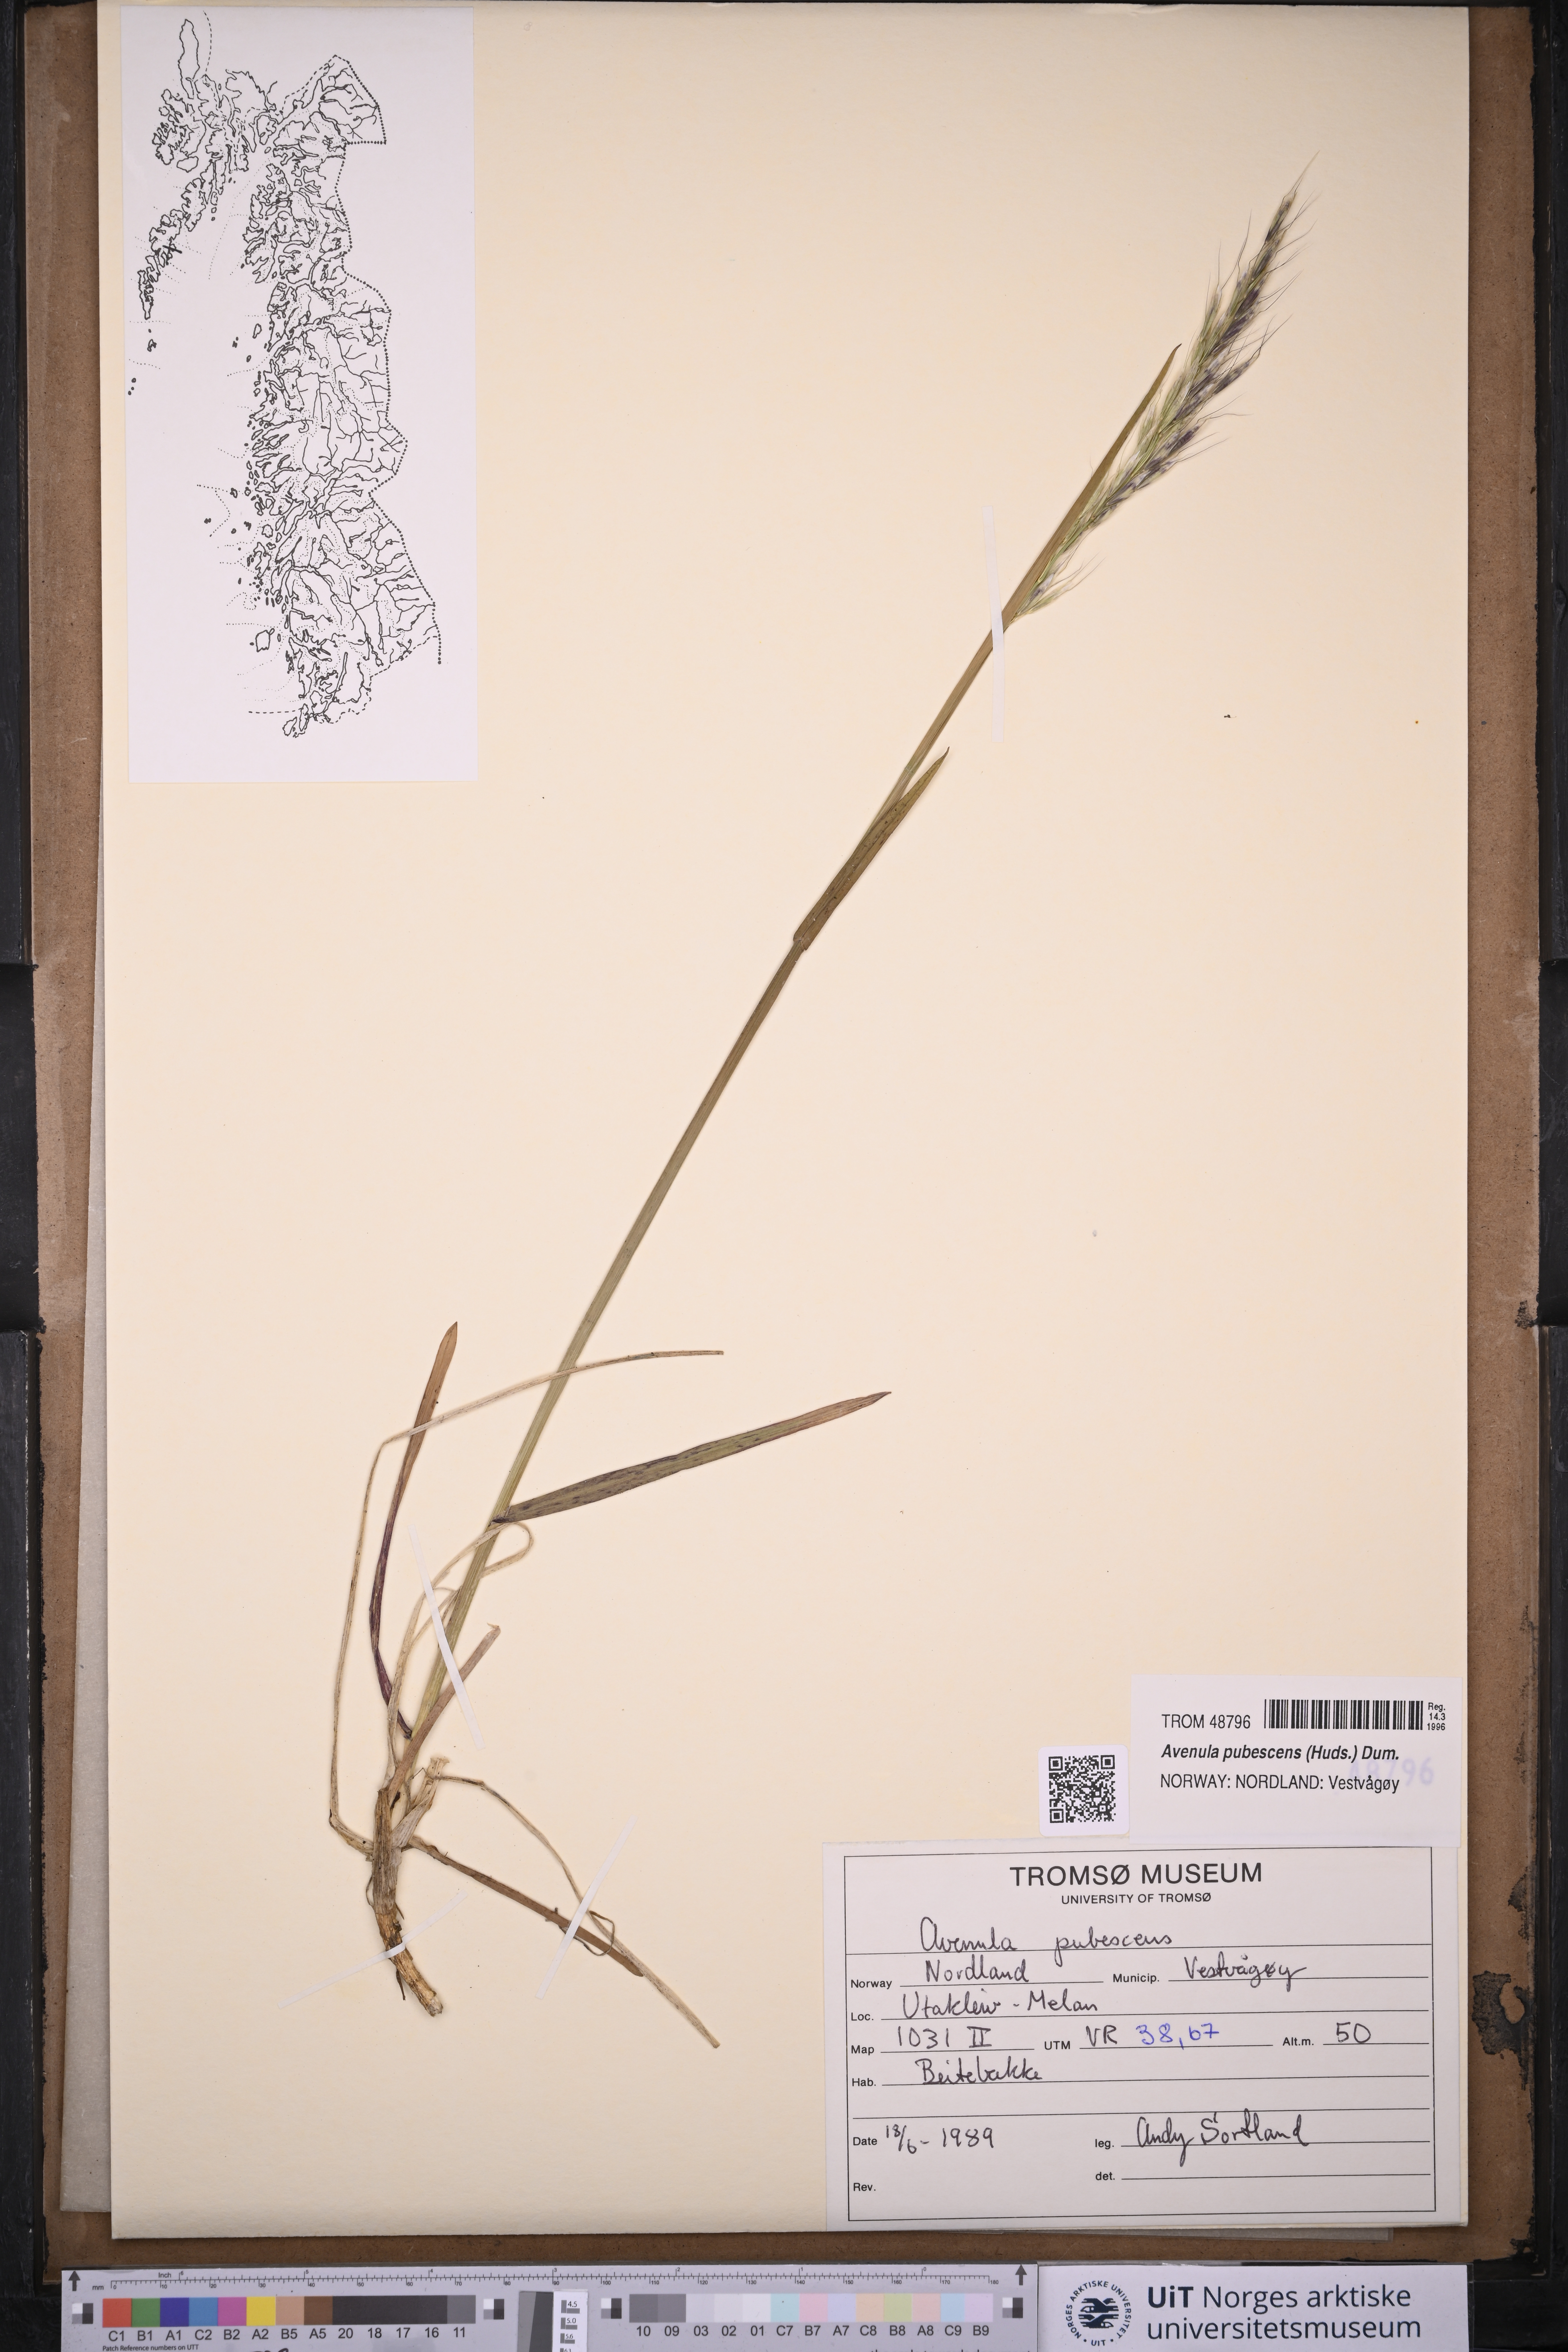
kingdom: Plantae
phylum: Tracheophyta
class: Liliopsida
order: Poales
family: Poaceae
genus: Avenula
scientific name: Avenula pubescens
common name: Downy alpine oatgrass
